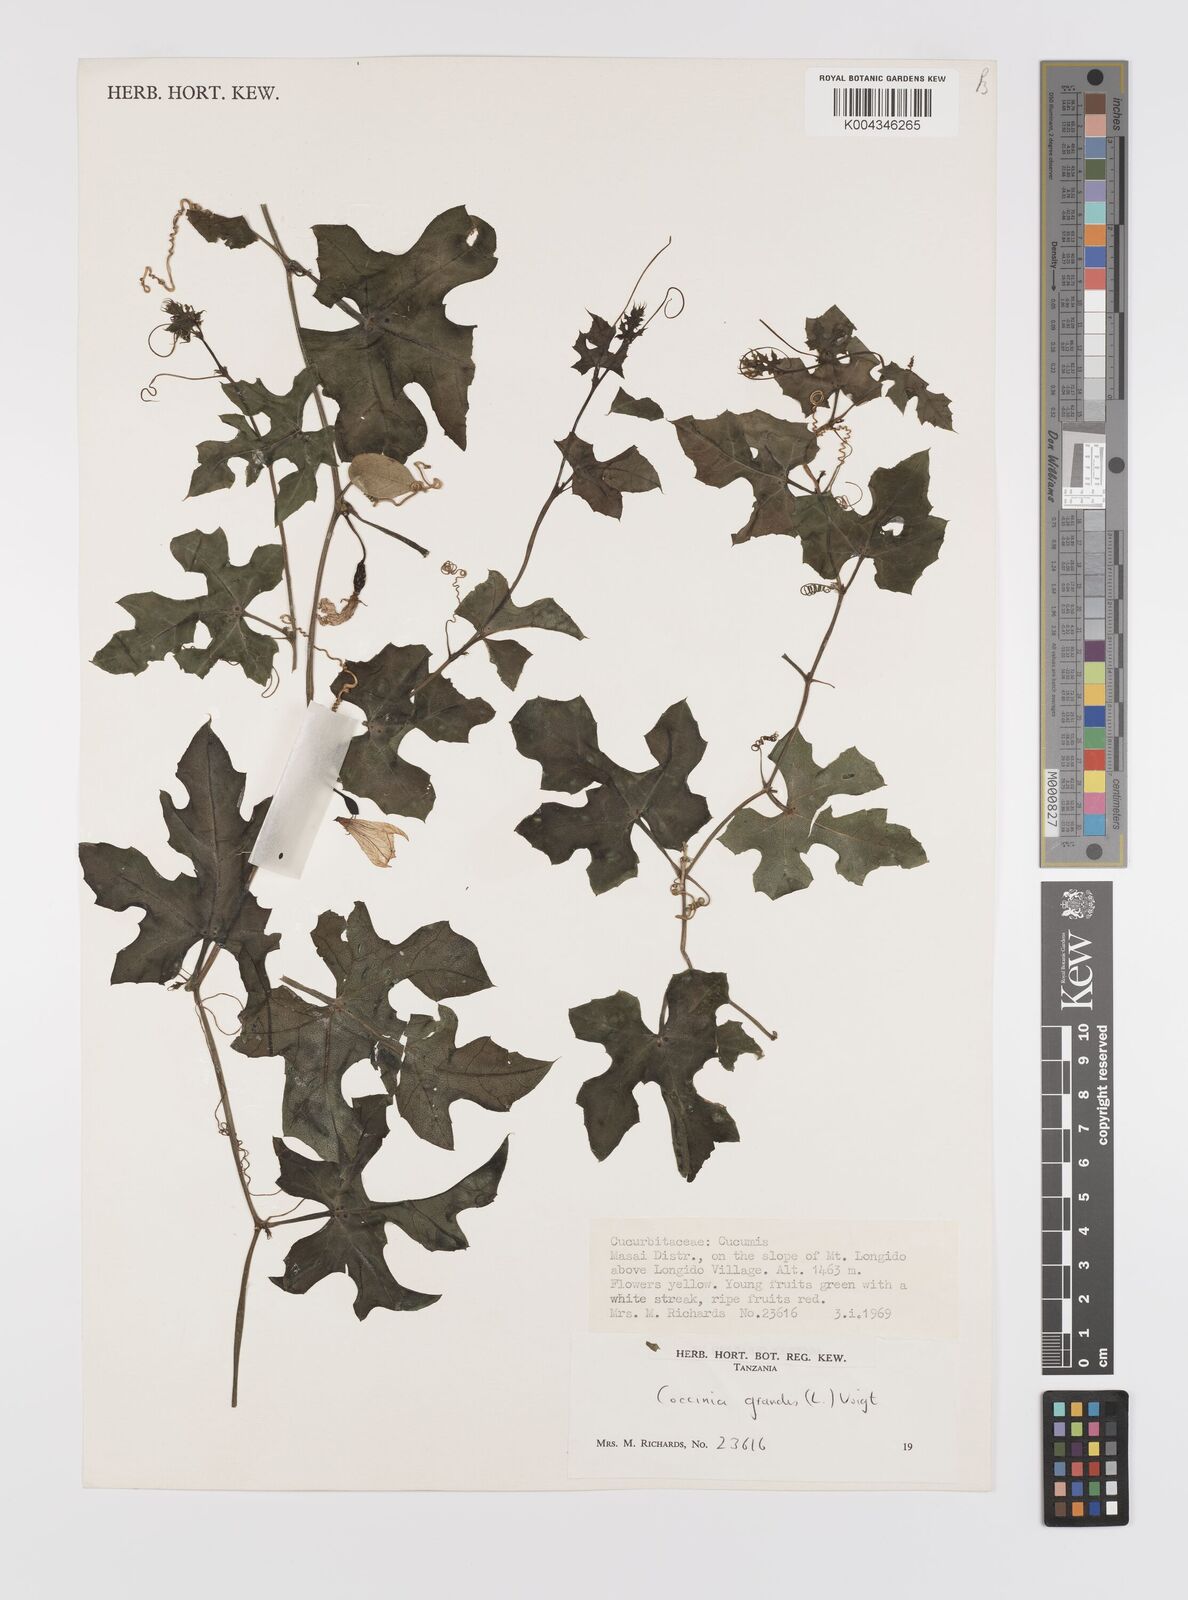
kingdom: Plantae
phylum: Tracheophyta
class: Magnoliopsida
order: Cucurbitales
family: Cucurbitaceae
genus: Coccinia
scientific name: Coccinia grandis
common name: Ivy gourd
